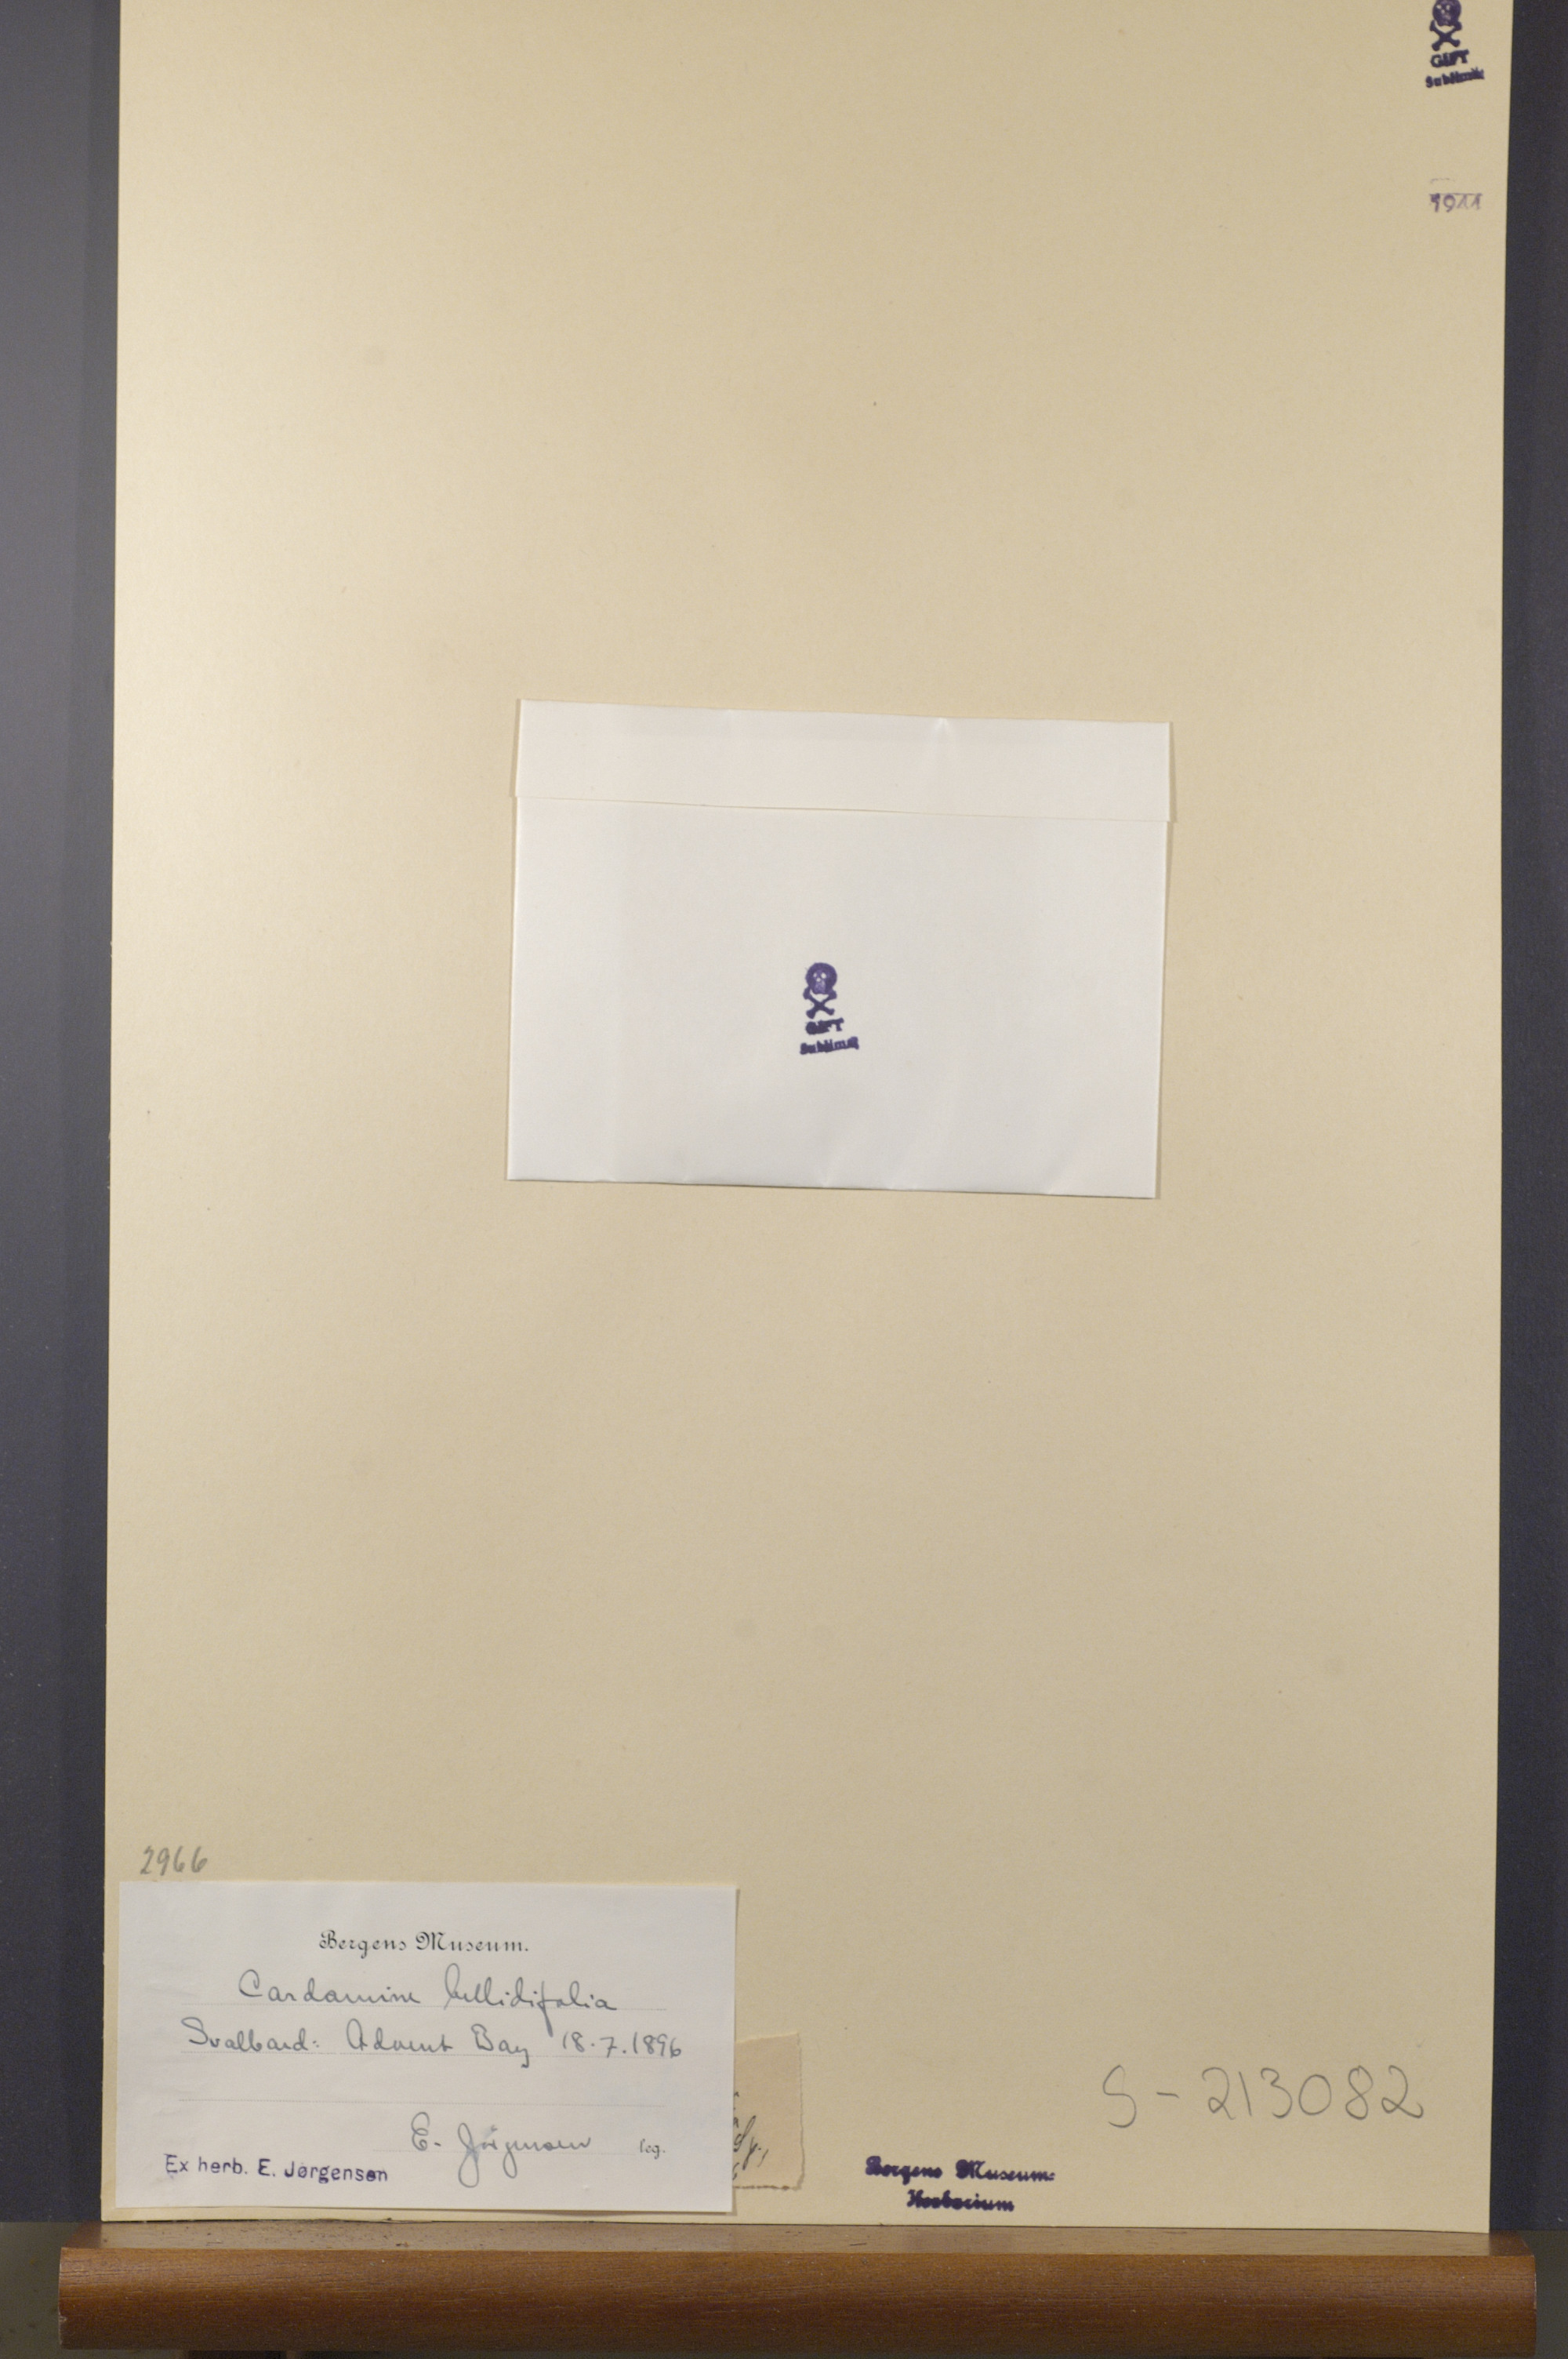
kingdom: Plantae
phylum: Tracheophyta
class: Magnoliopsida
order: Brassicales
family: Brassicaceae
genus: Cardamine
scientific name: Cardamine bellidifolia
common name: Alpine bittercress
